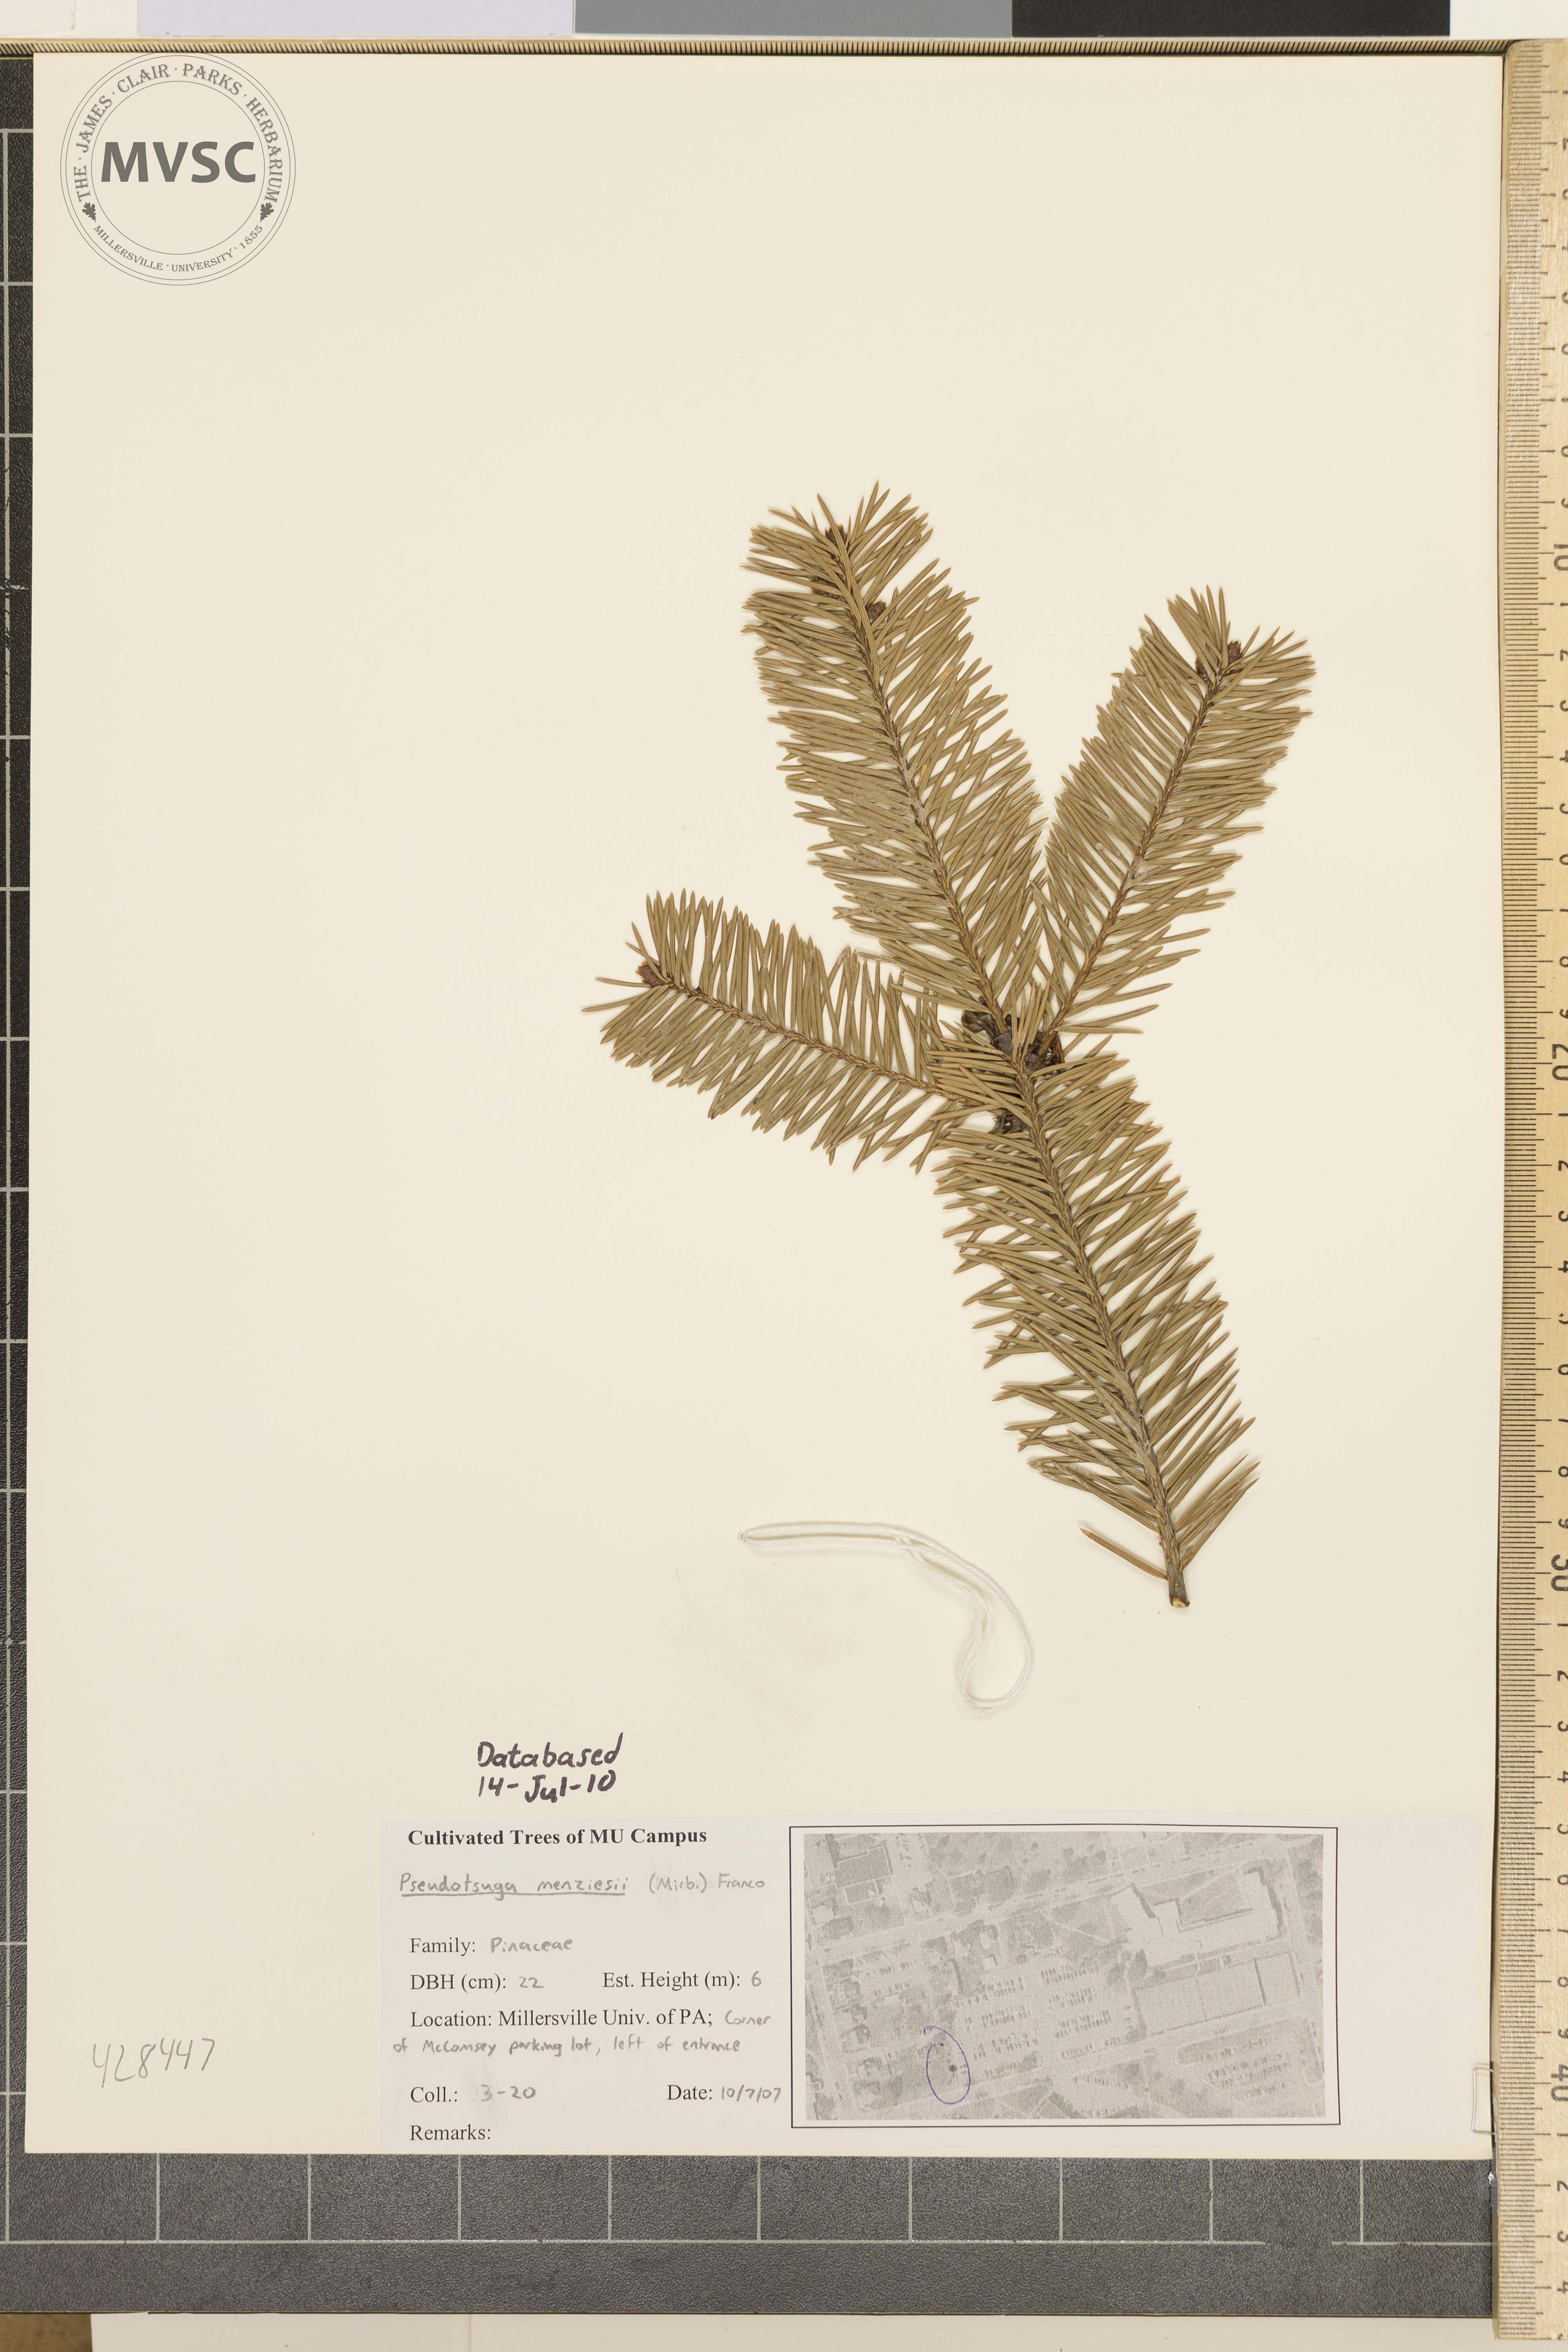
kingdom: Plantae
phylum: Tracheophyta
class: Pinopsida
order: Pinales
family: Pinaceae
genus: Pseudotsuga
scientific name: Pseudotsuga menziesii
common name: Douglas-fir
